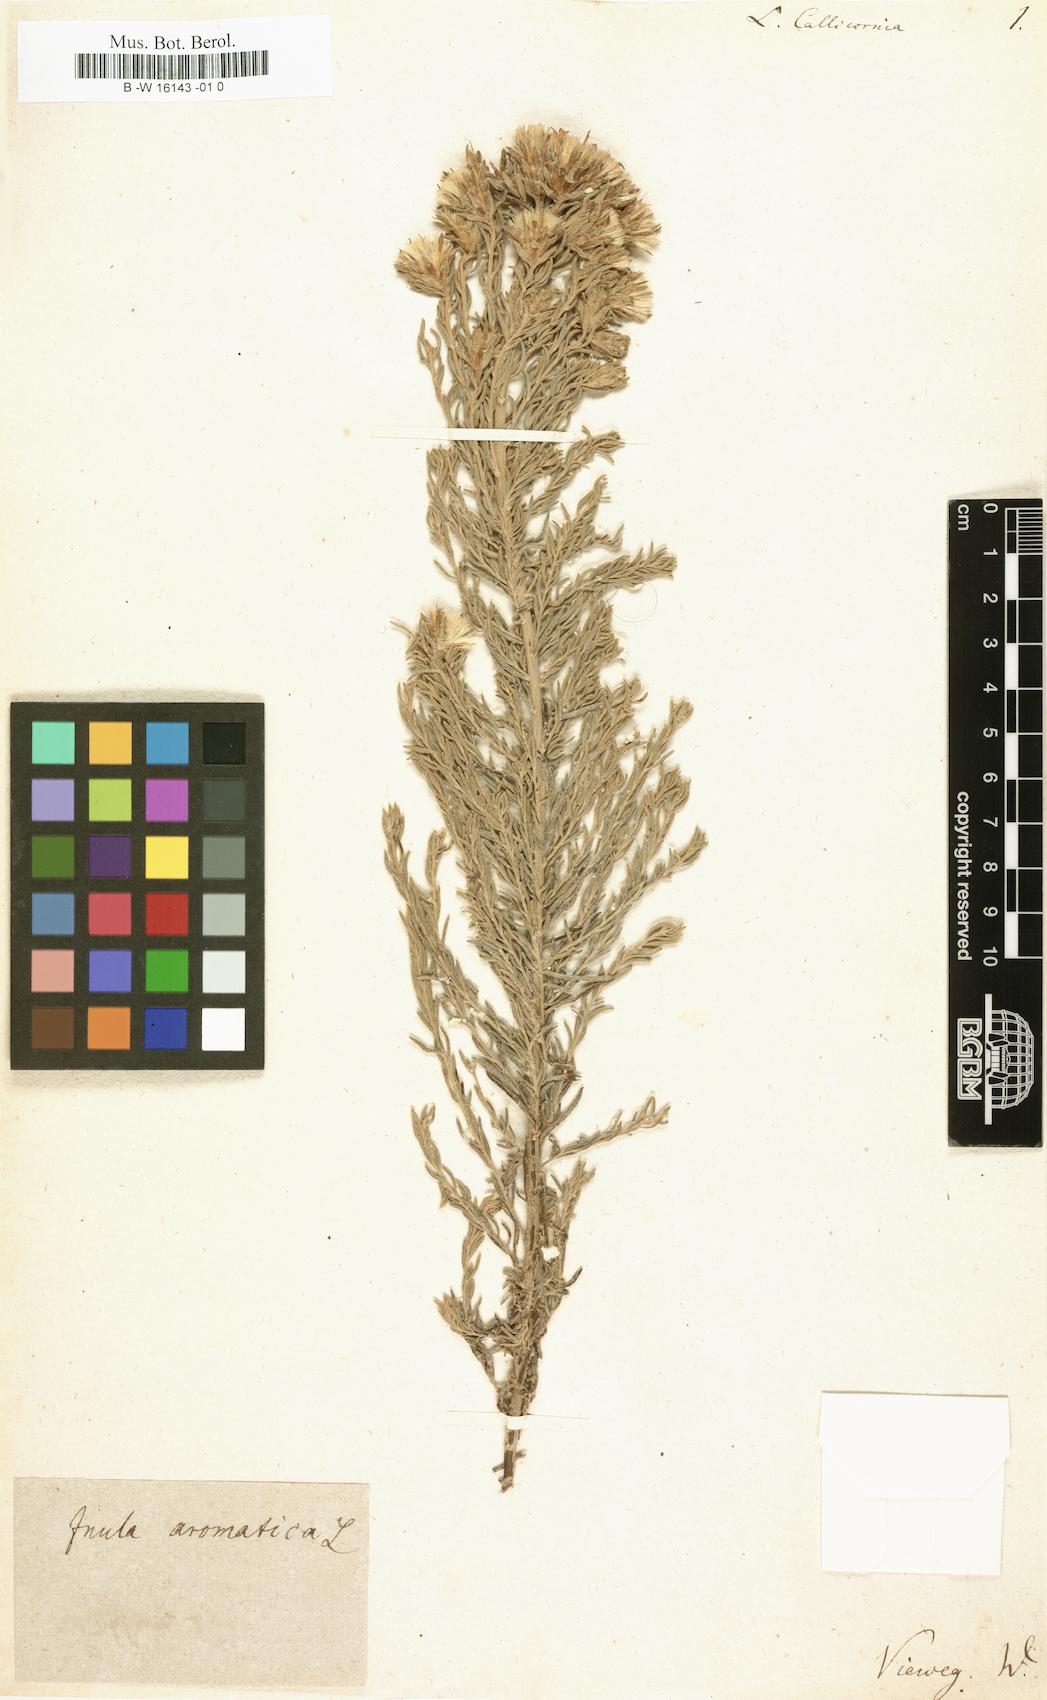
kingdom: Plantae
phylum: Tracheophyta
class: Magnoliopsida
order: Asterales
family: Asteraceae
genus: Printzia
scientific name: Printzia aromatica
